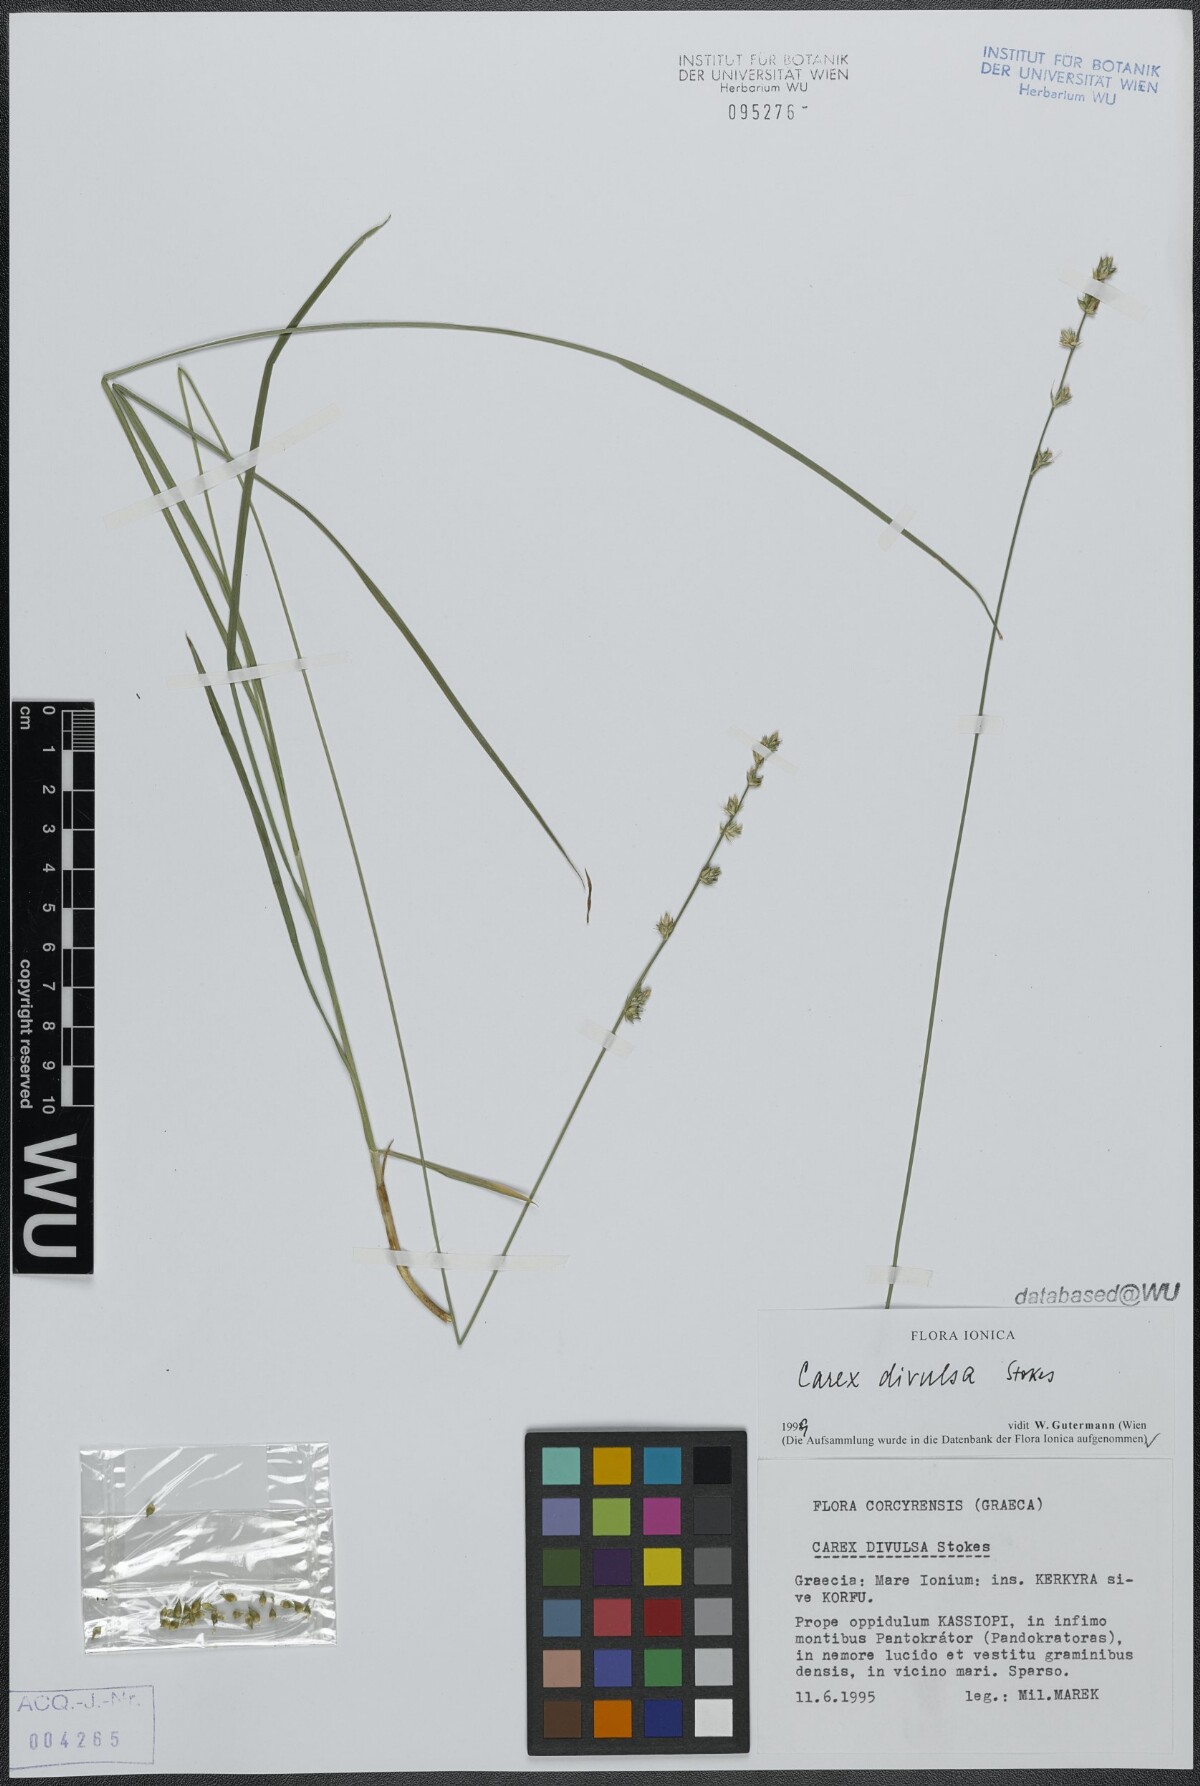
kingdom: Plantae
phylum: Tracheophyta
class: Liliopsida
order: Poales
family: Cyperaceae
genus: Carex
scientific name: Carex divulsa
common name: Grassland sedge
